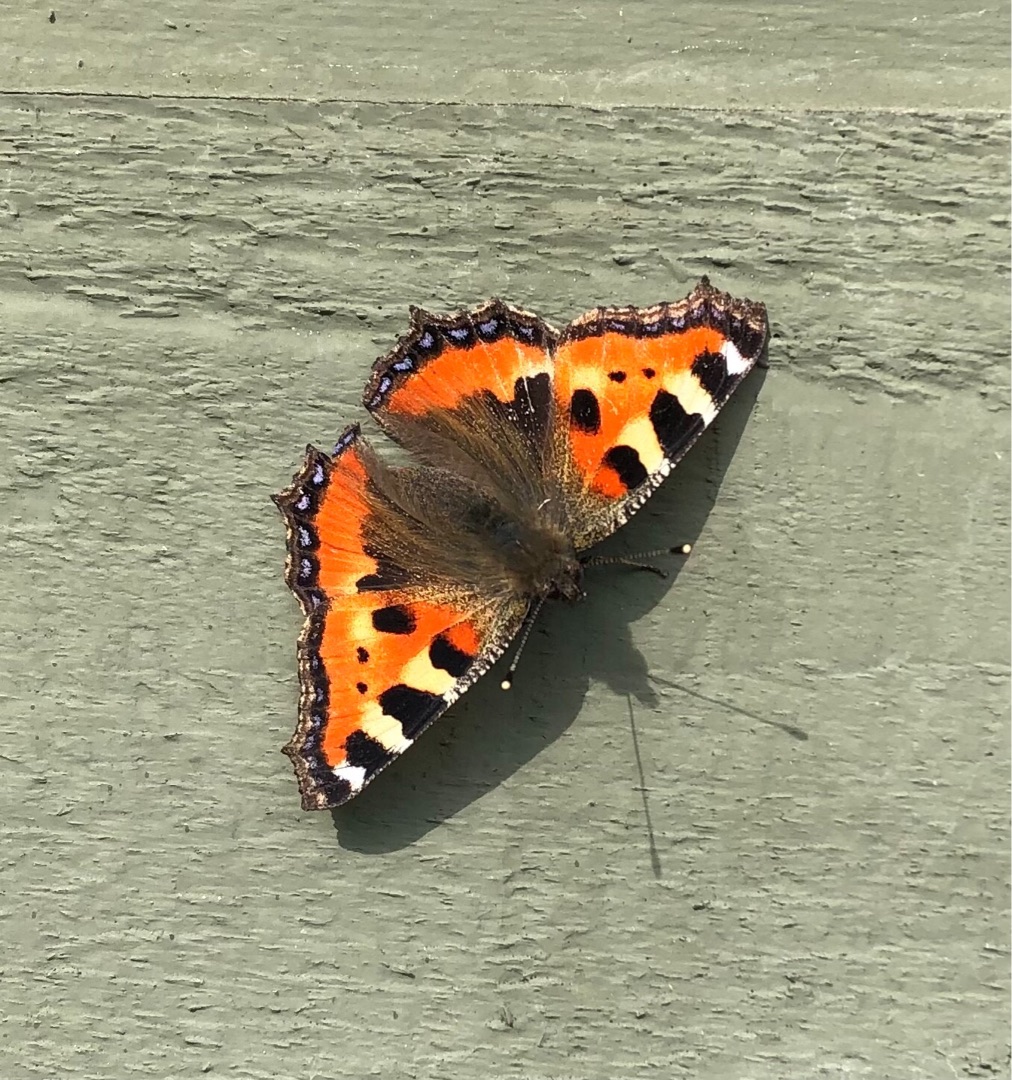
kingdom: Animalia
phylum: Arthropoda
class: Insecta
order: Lepidoptera
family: Nymphalidae
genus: Aglais
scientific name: Aglais urticae
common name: Nældens takvinge
